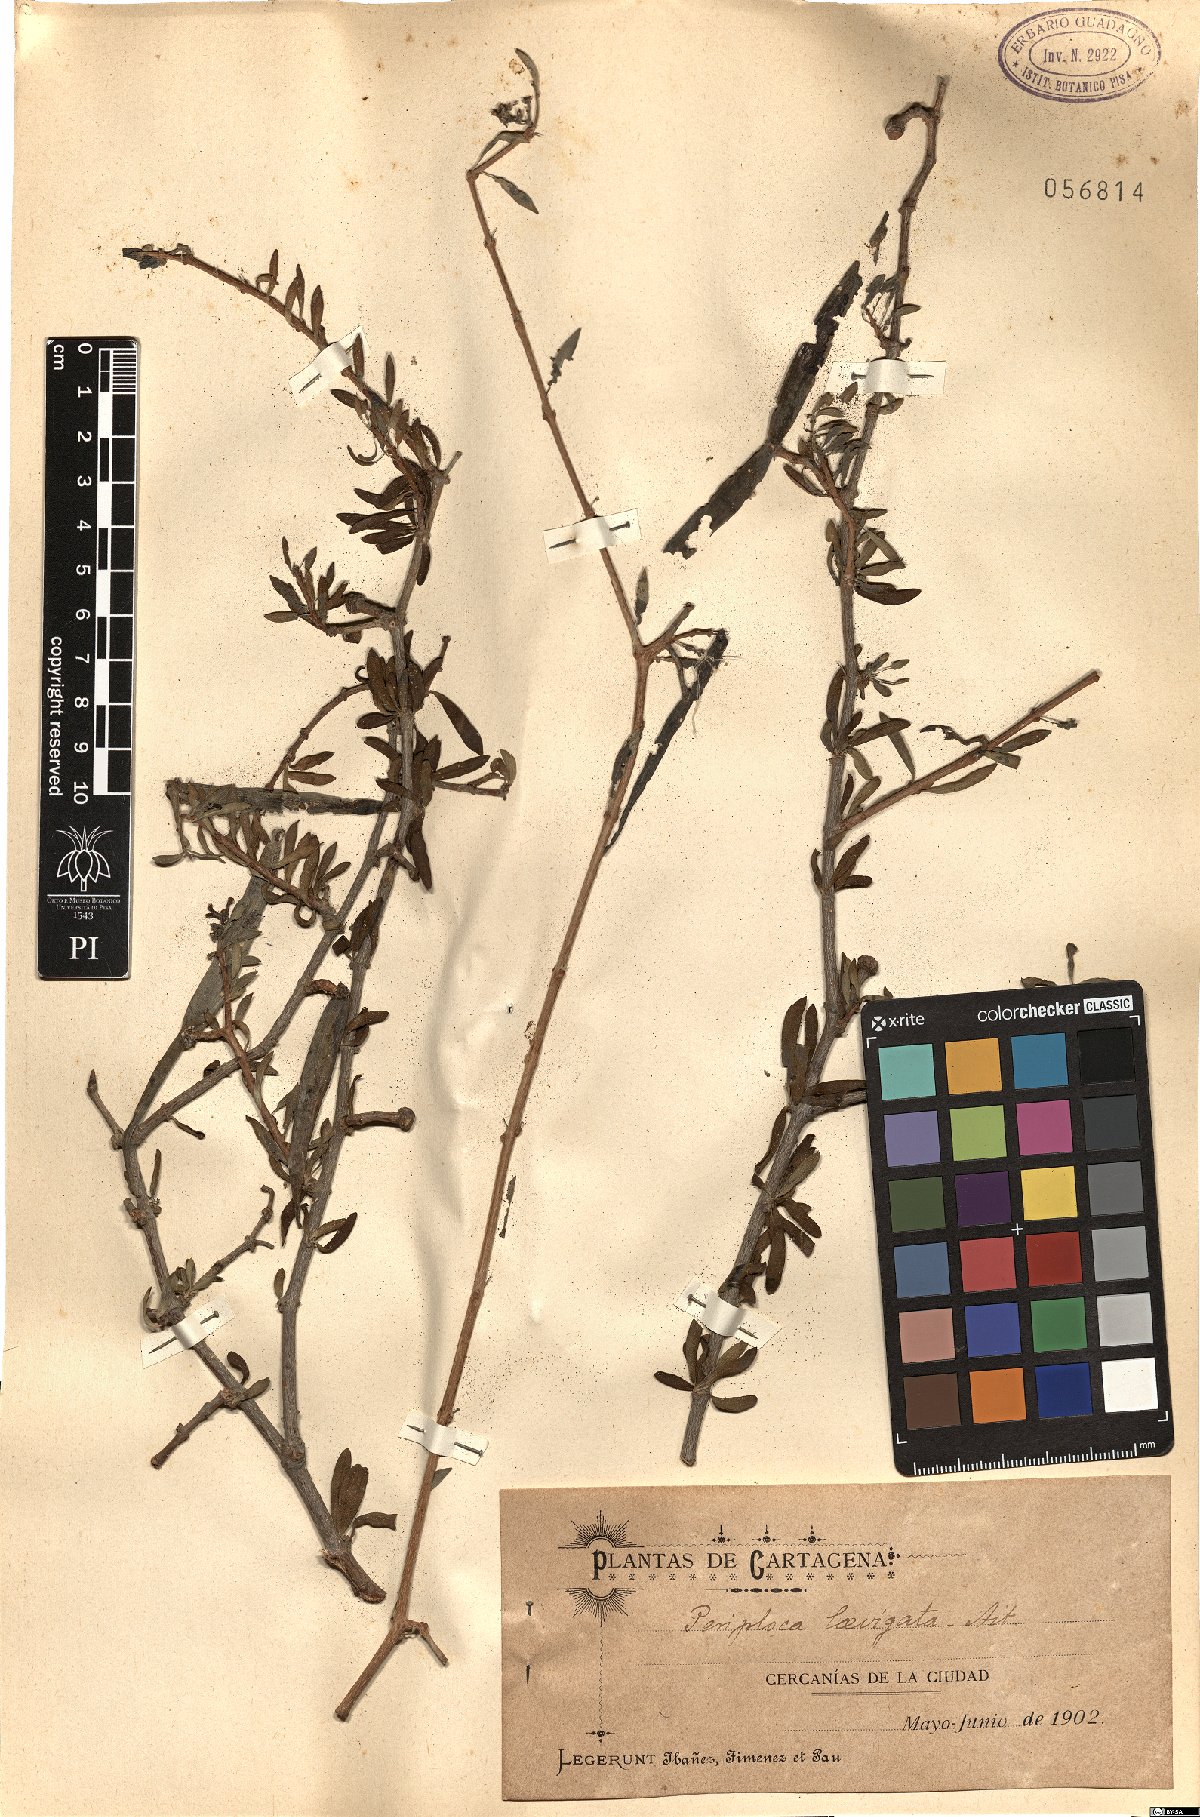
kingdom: Plantae
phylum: Tracheophyta
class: Magnoliopsida
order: Gentianales
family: Apocynaceae
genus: Periploca
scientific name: Periploca laevigata
